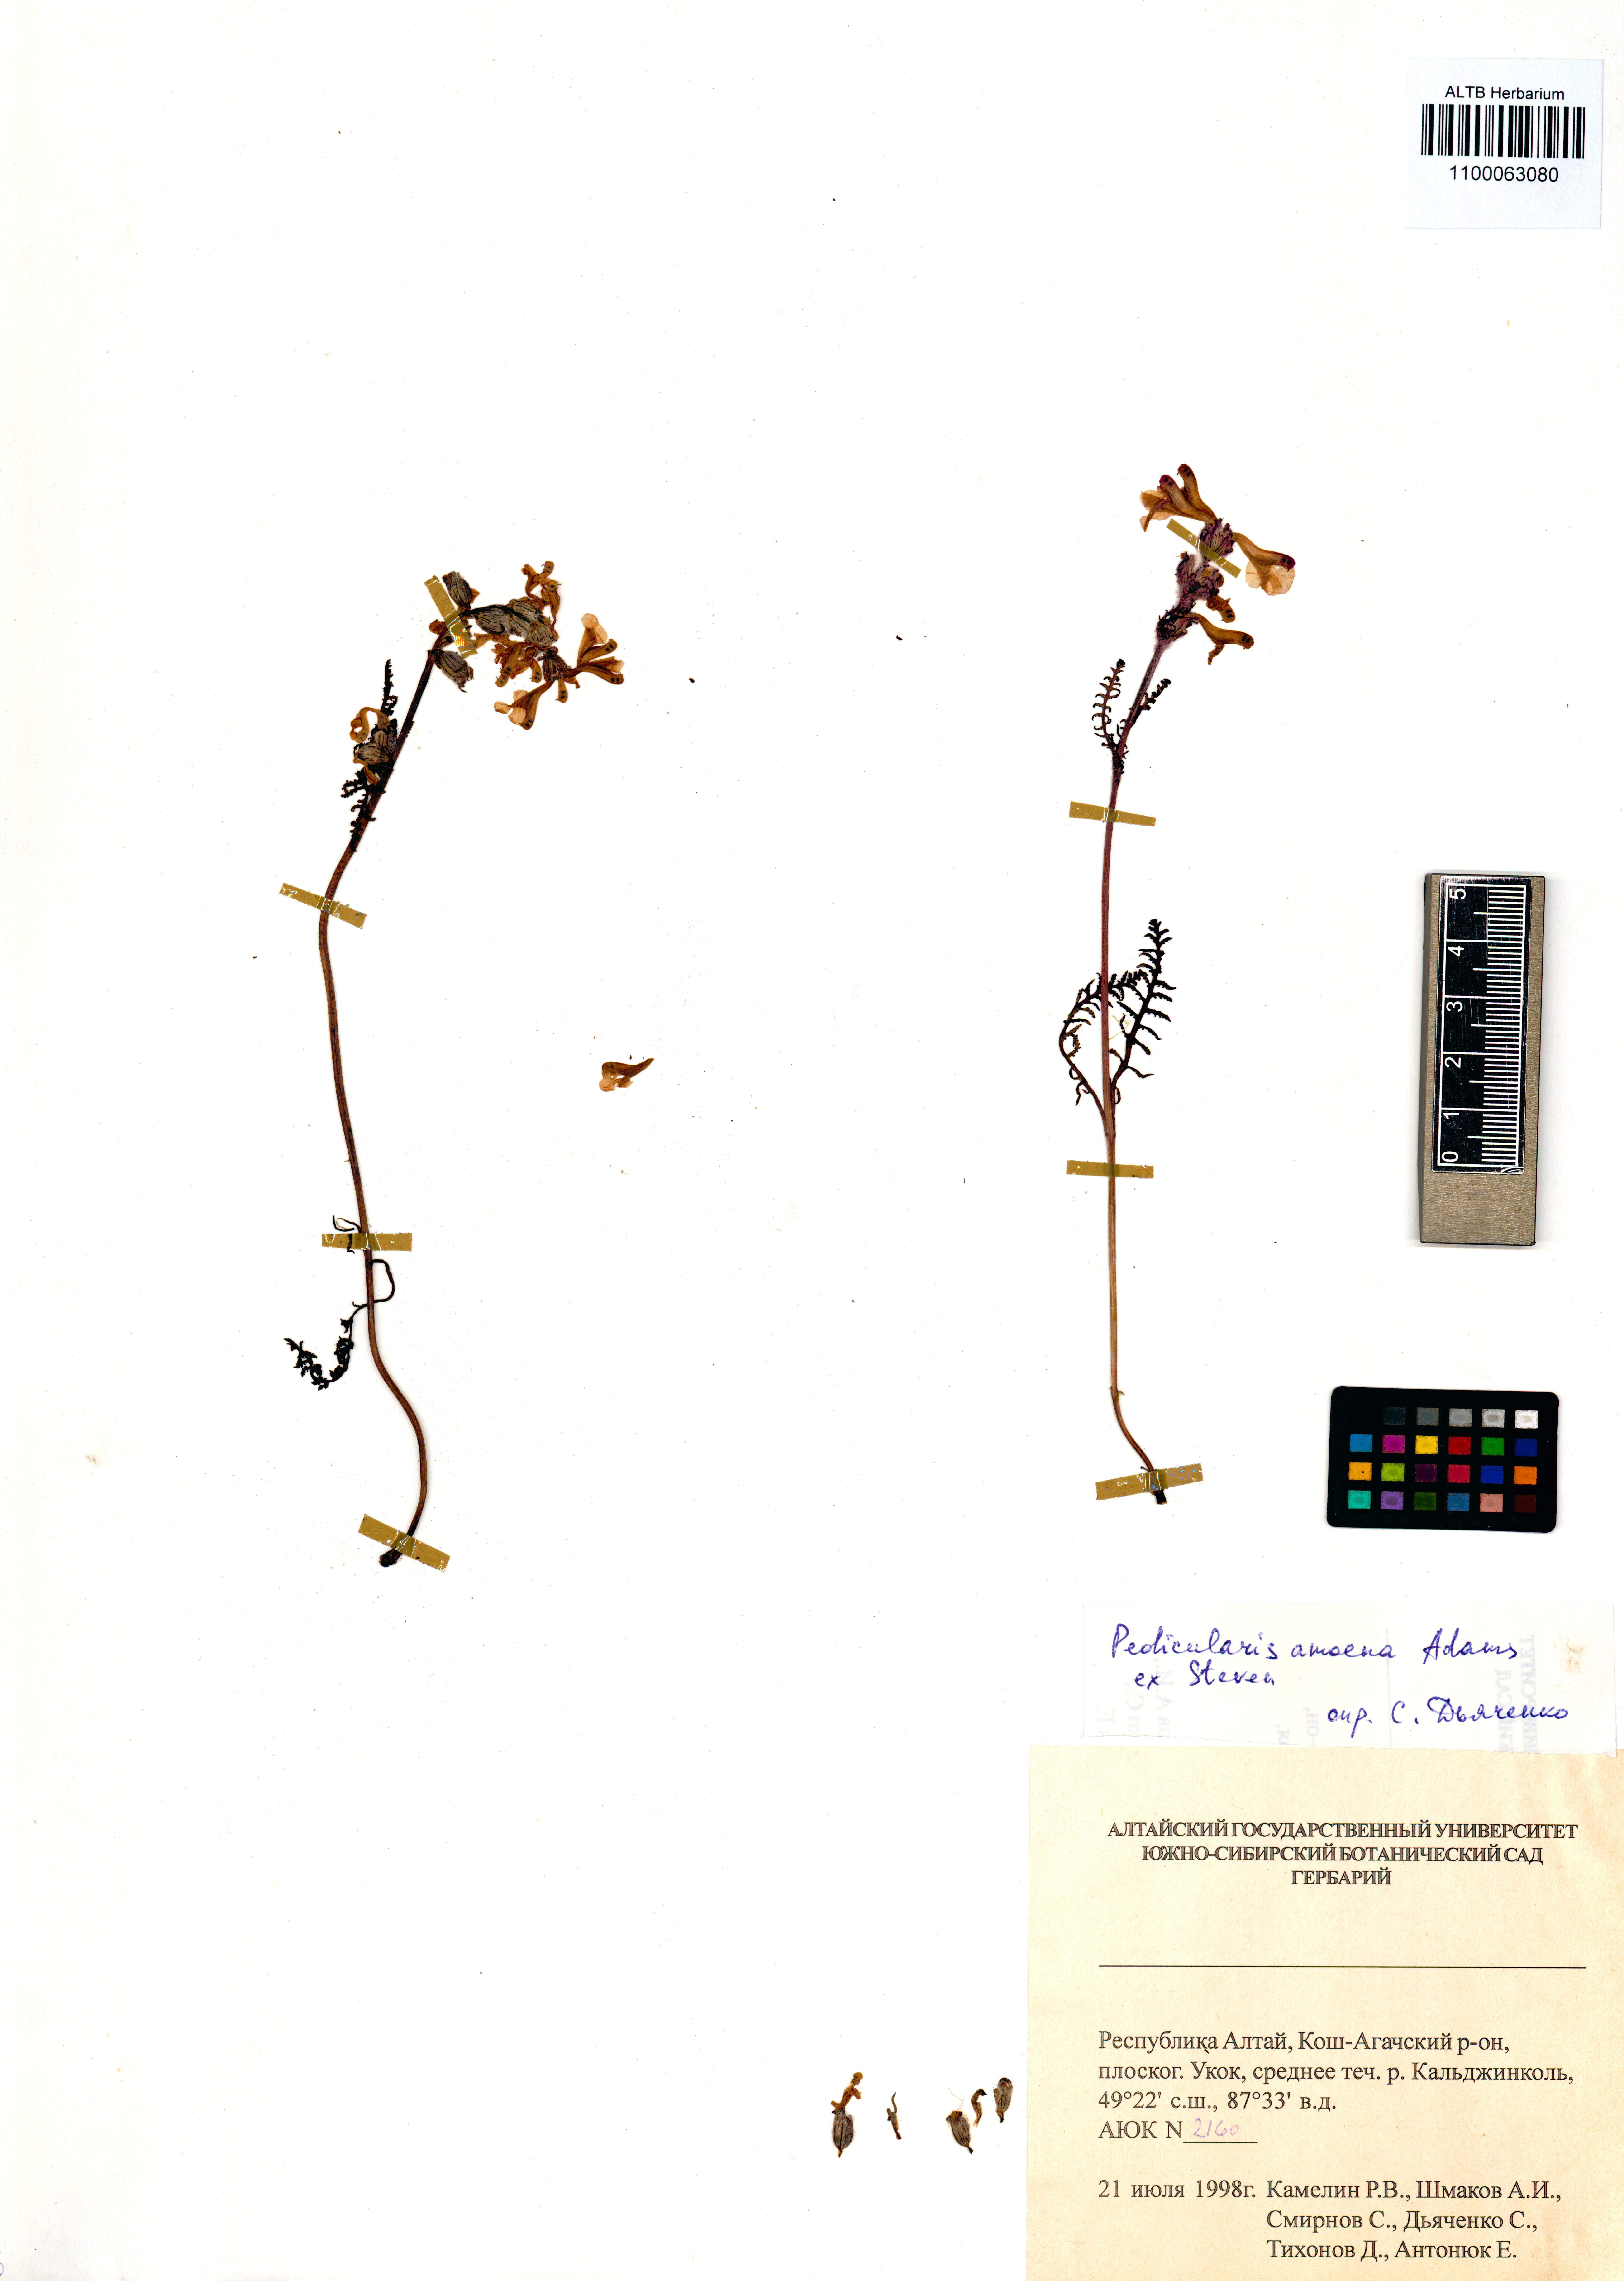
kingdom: Plantae
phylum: Tracheophyta
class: Magnoliopsida
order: Lamiales
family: Orobanchaceae
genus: Pedicularis
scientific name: Pedicularis amoena
